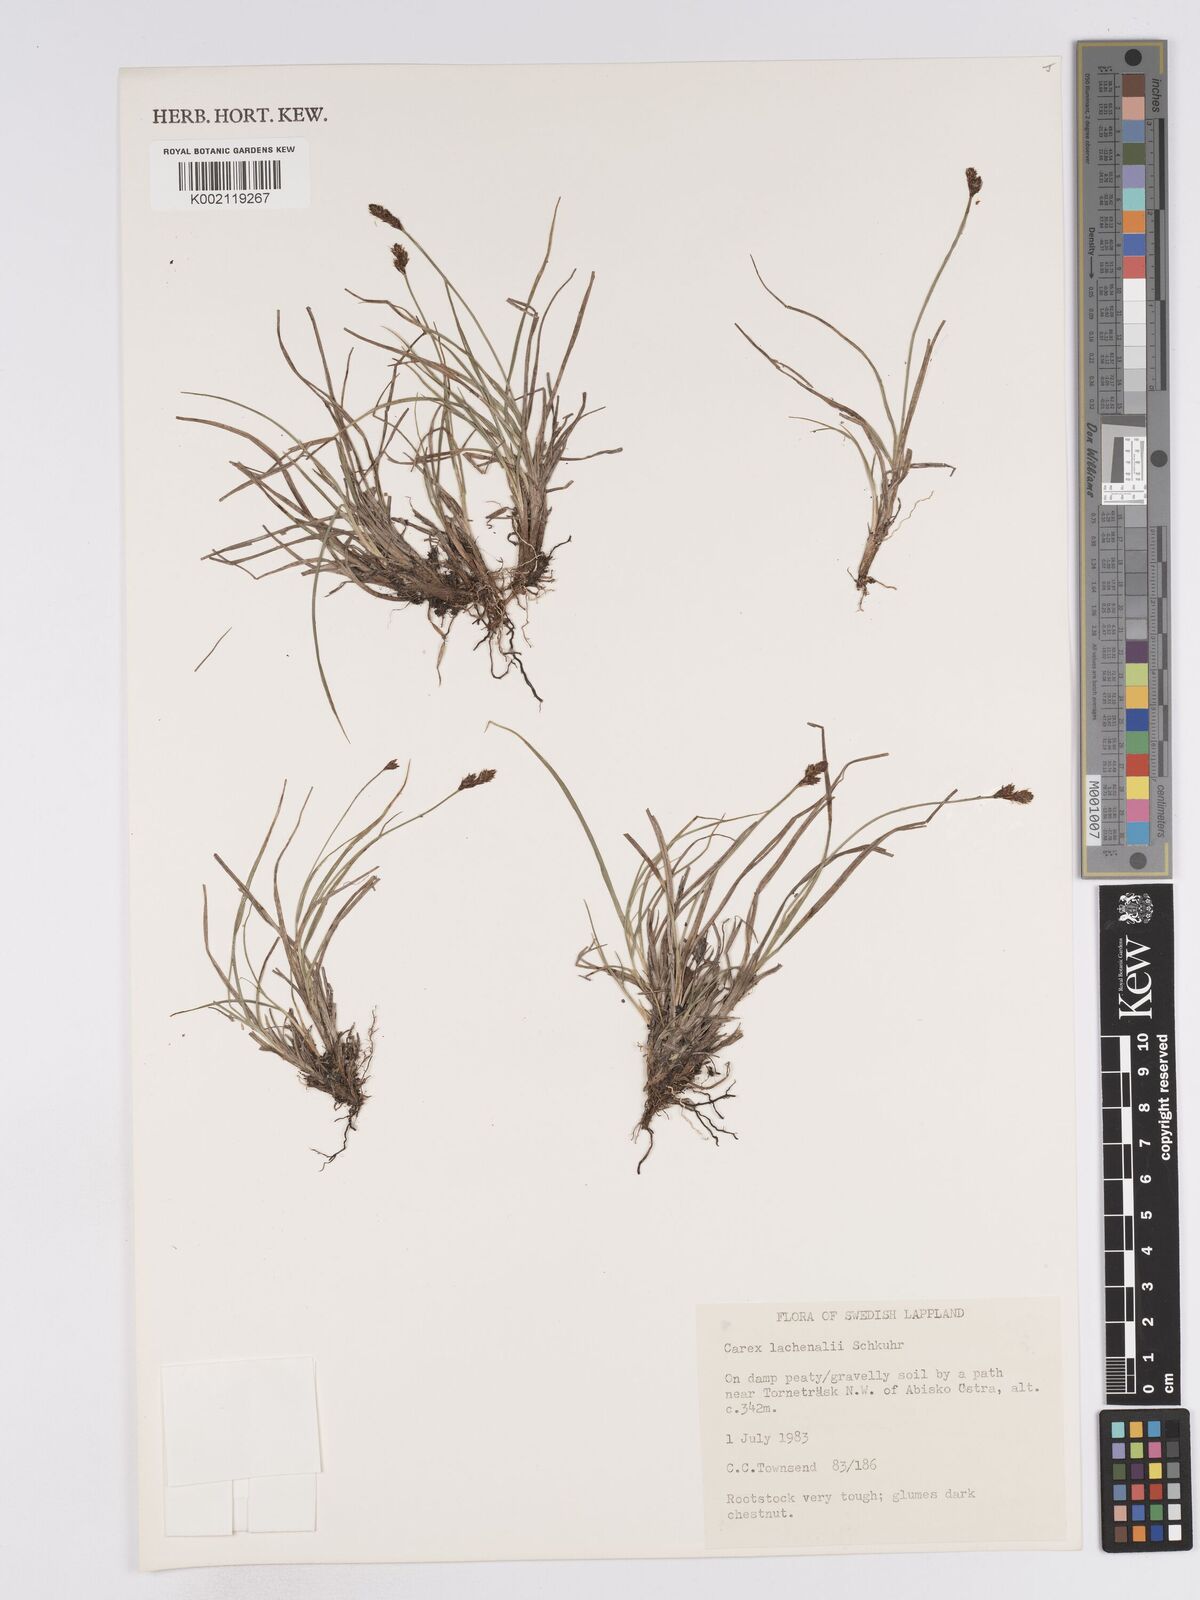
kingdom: Plantae
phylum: Tracheophyta
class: Liliopsida
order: Poales
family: Cyperaceae
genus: Carex
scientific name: Carex lachenalii
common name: Hare's-foot sedge
